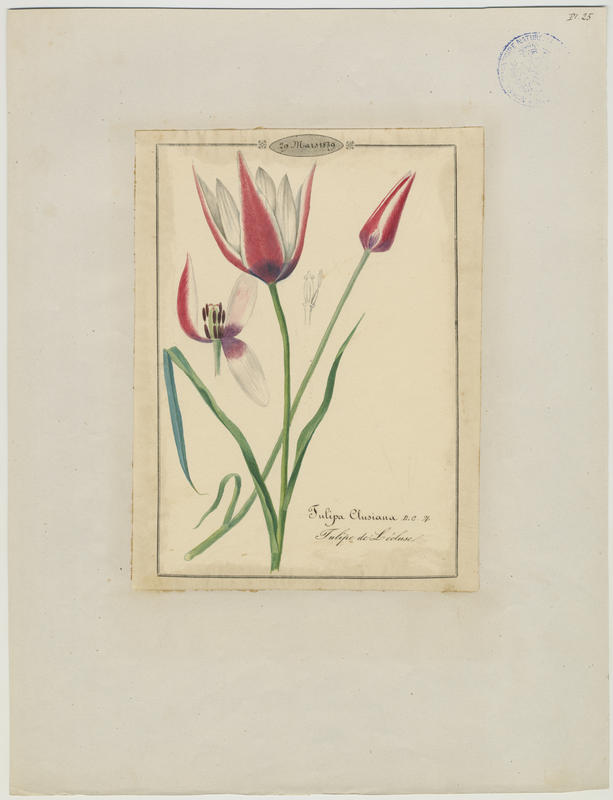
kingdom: Plantae
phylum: Tracheophyta
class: Liliopsida
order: Liliales
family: Liliaceae
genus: Tulipa
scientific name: Tulipa clusiana
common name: Lady tulip
